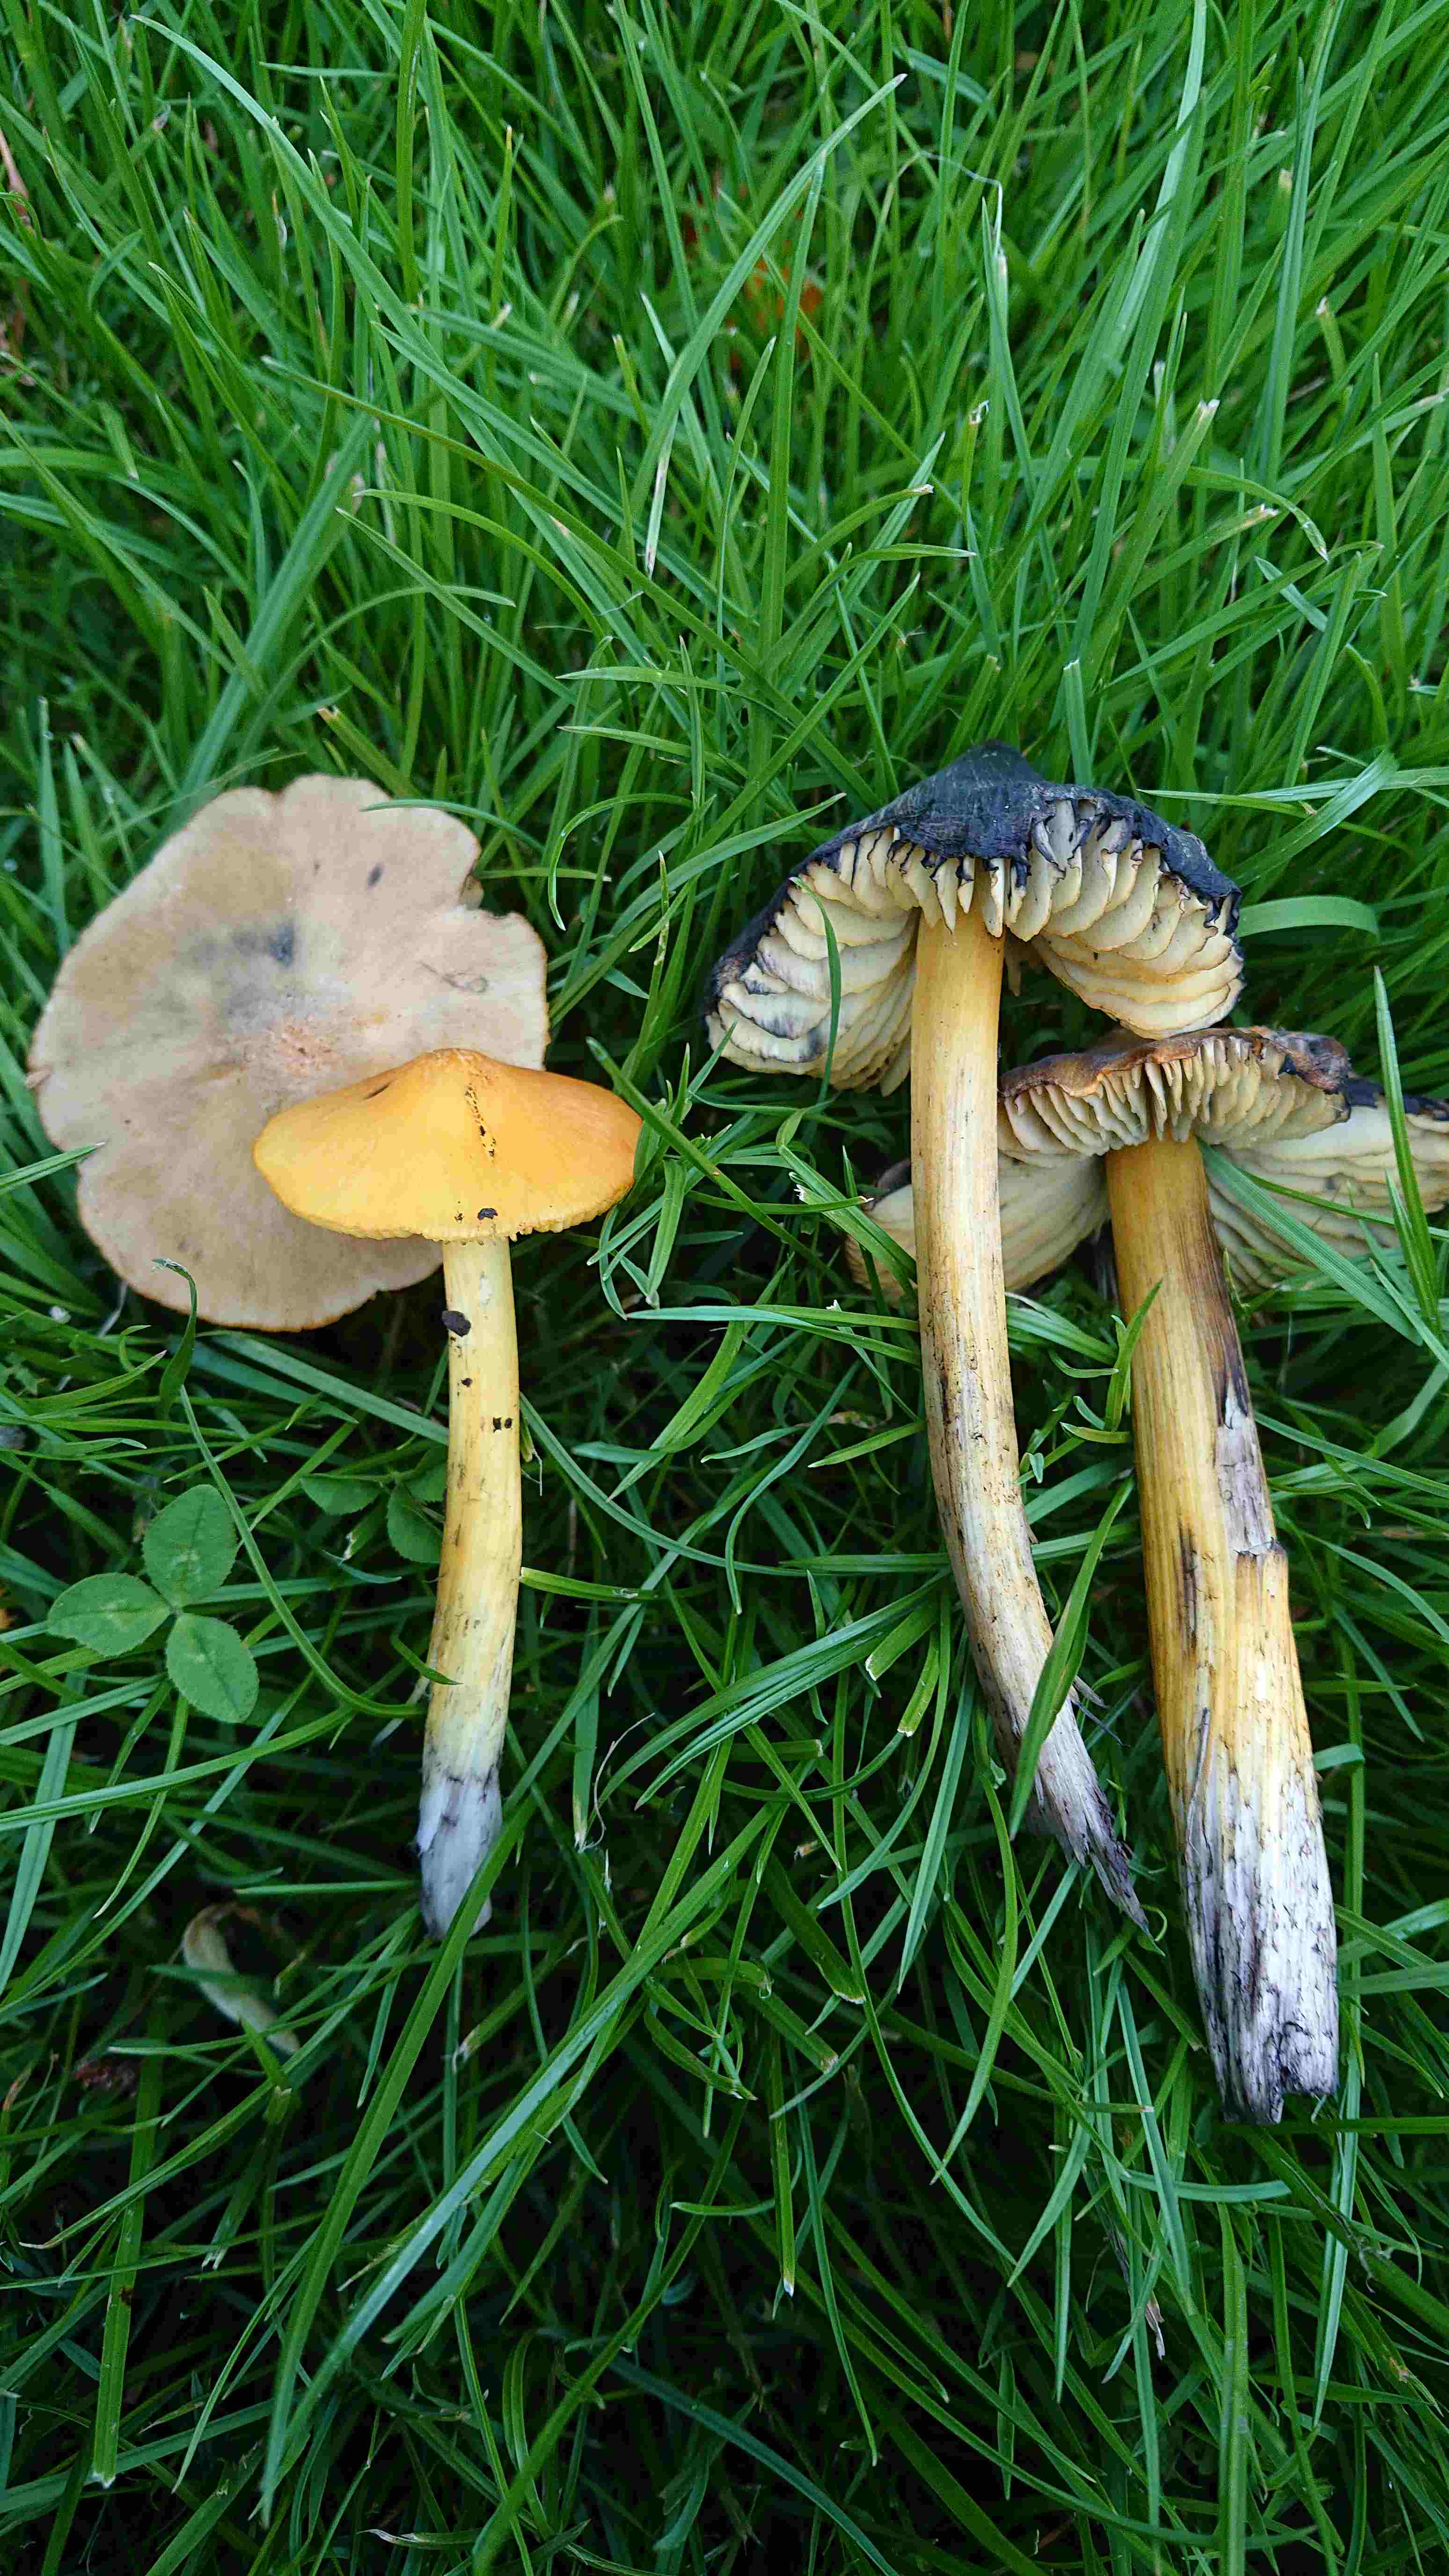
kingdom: Fungi
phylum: Basidiomycota
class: Agaricomycetes
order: Agaricales
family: Hygrophoraceae
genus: Hygrocybe
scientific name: Hygrocybe conica
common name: kegle-vokshat
